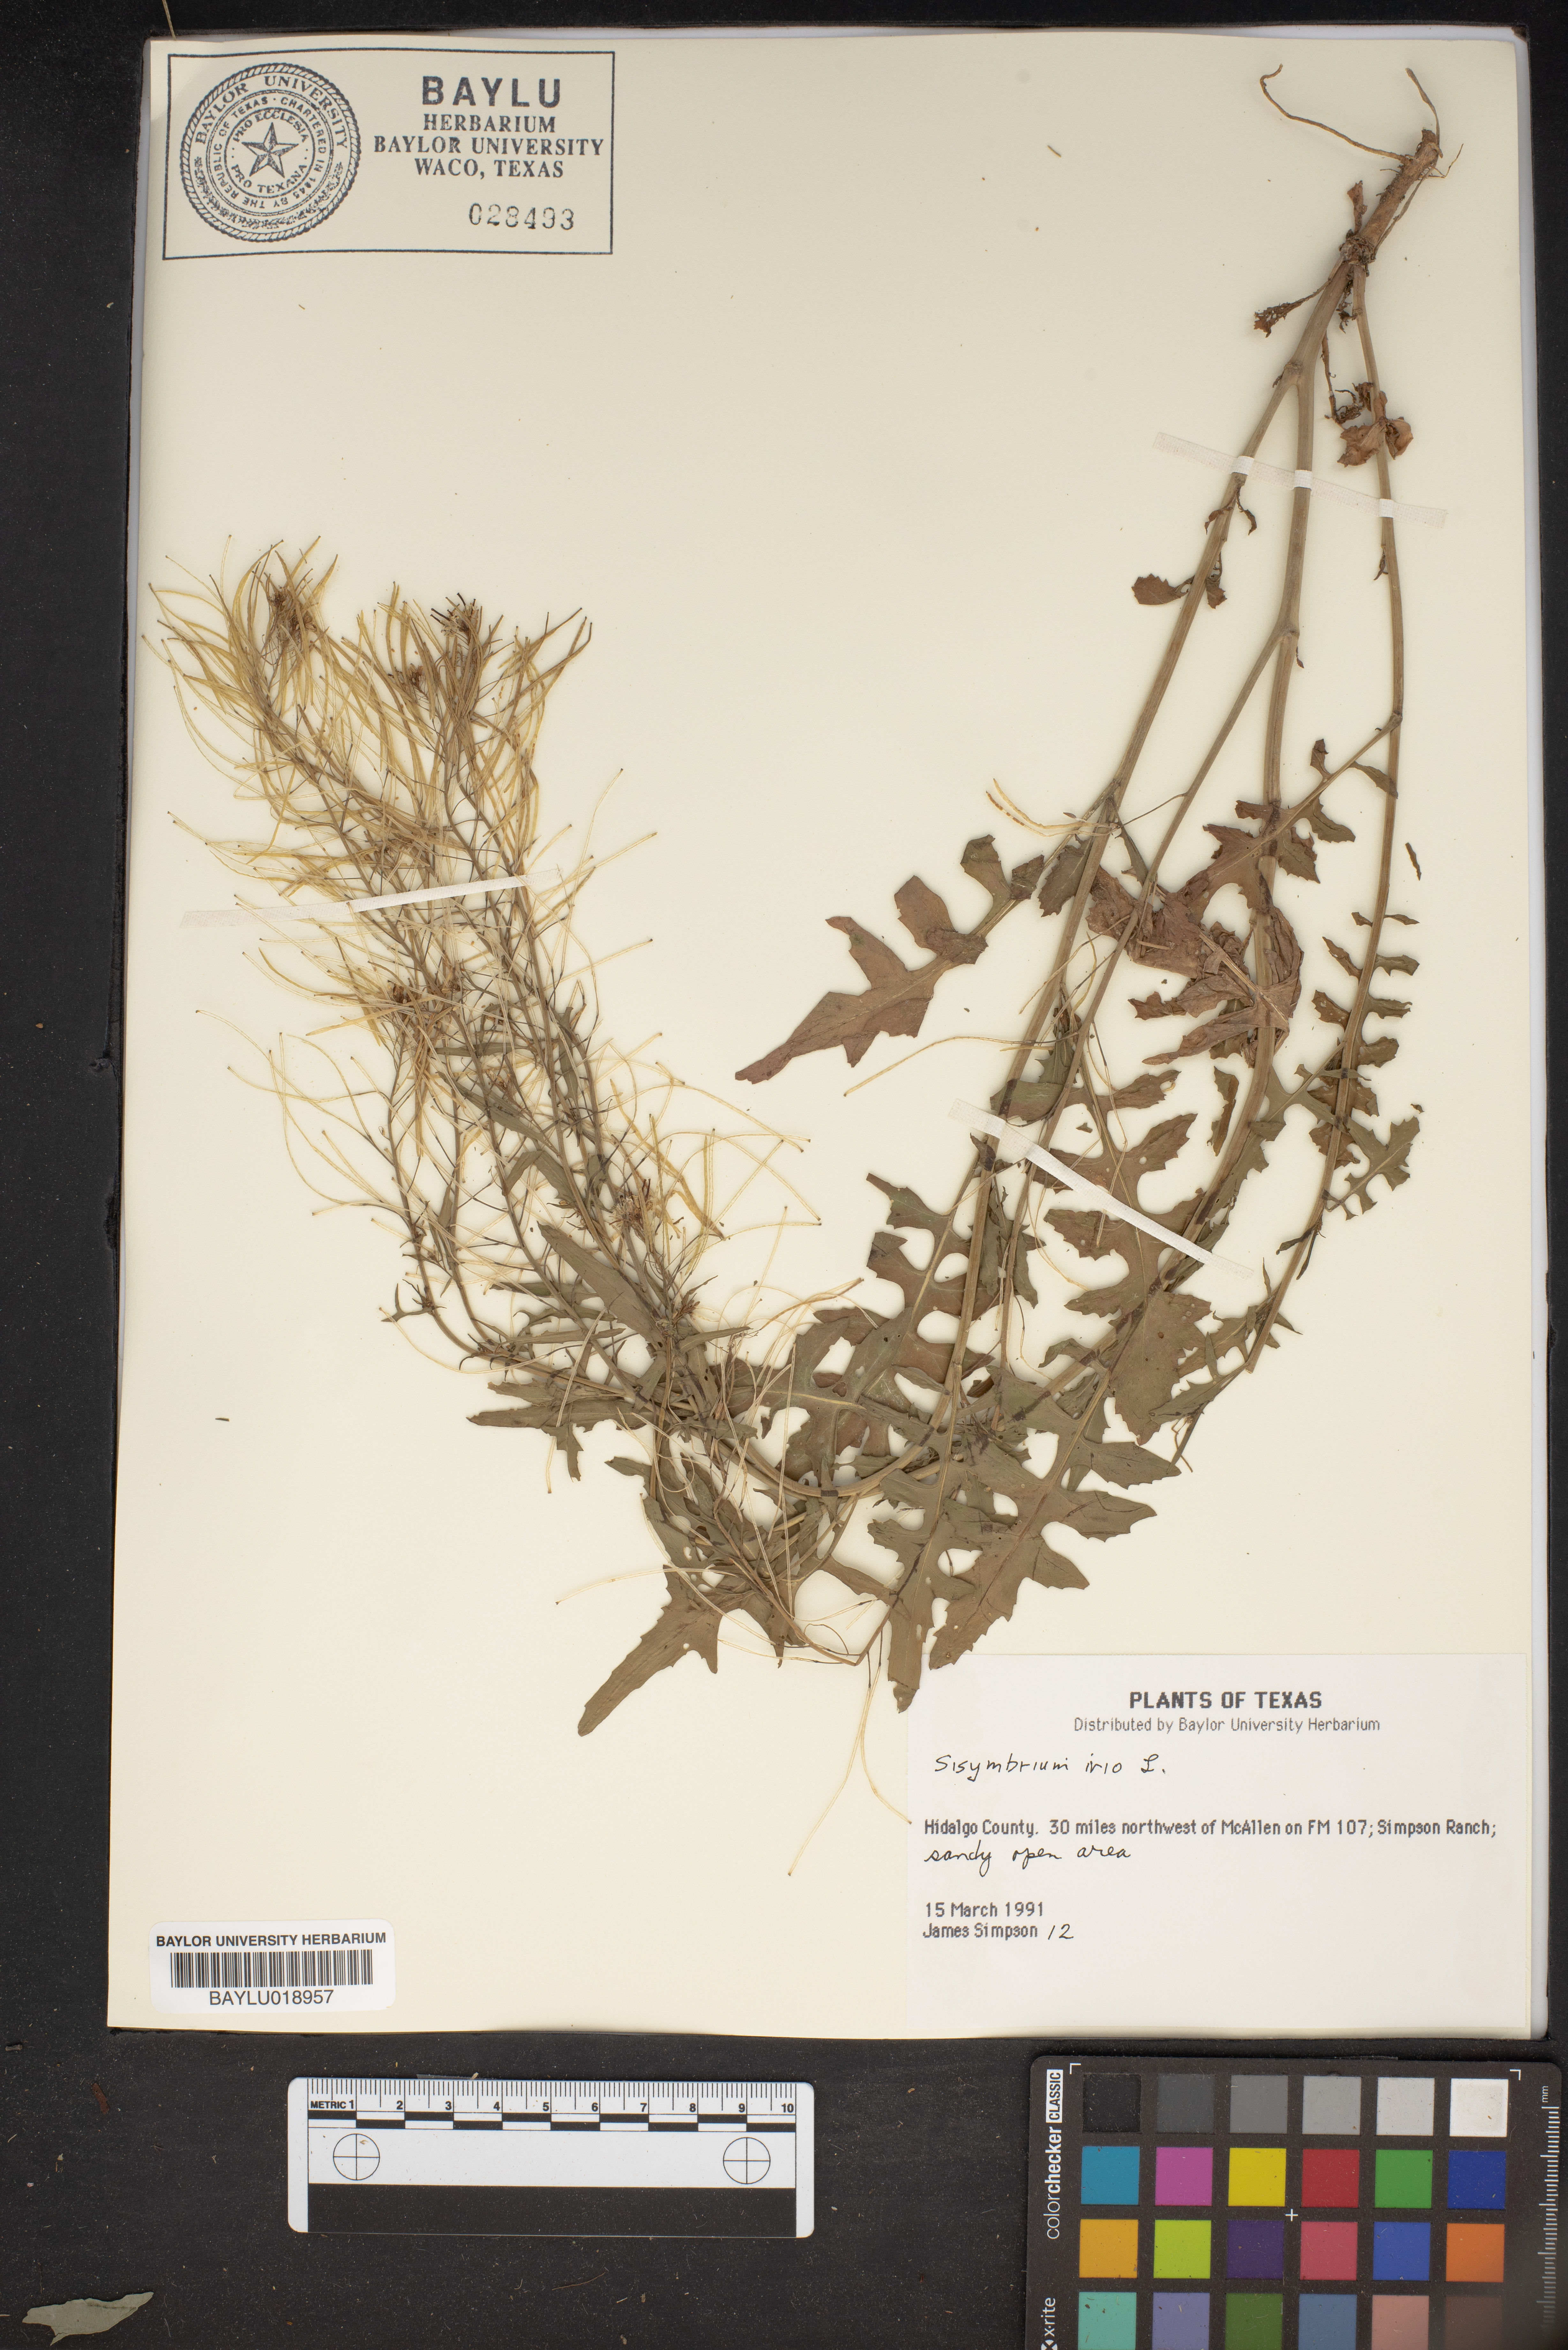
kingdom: Plantae
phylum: Tracheophyta
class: Magnoliopsida
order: Brassicales
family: Brassicaceae
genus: Sisymbrium
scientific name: Sisymbrium irio
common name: London rocket
